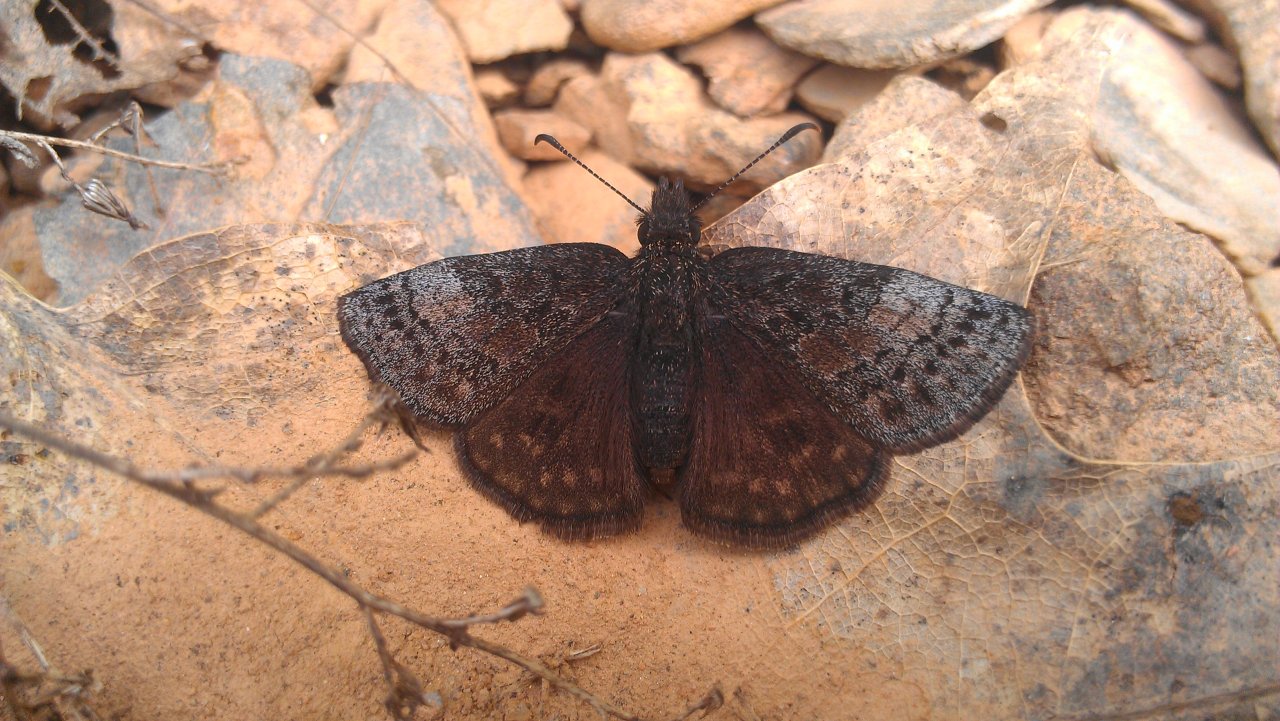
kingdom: Animalia
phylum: Arthropoda
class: Insecta
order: Lepidoptera
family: Hesperiidae
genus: Erynnis
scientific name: Erynnis icelus
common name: Dreamy Duskywing
